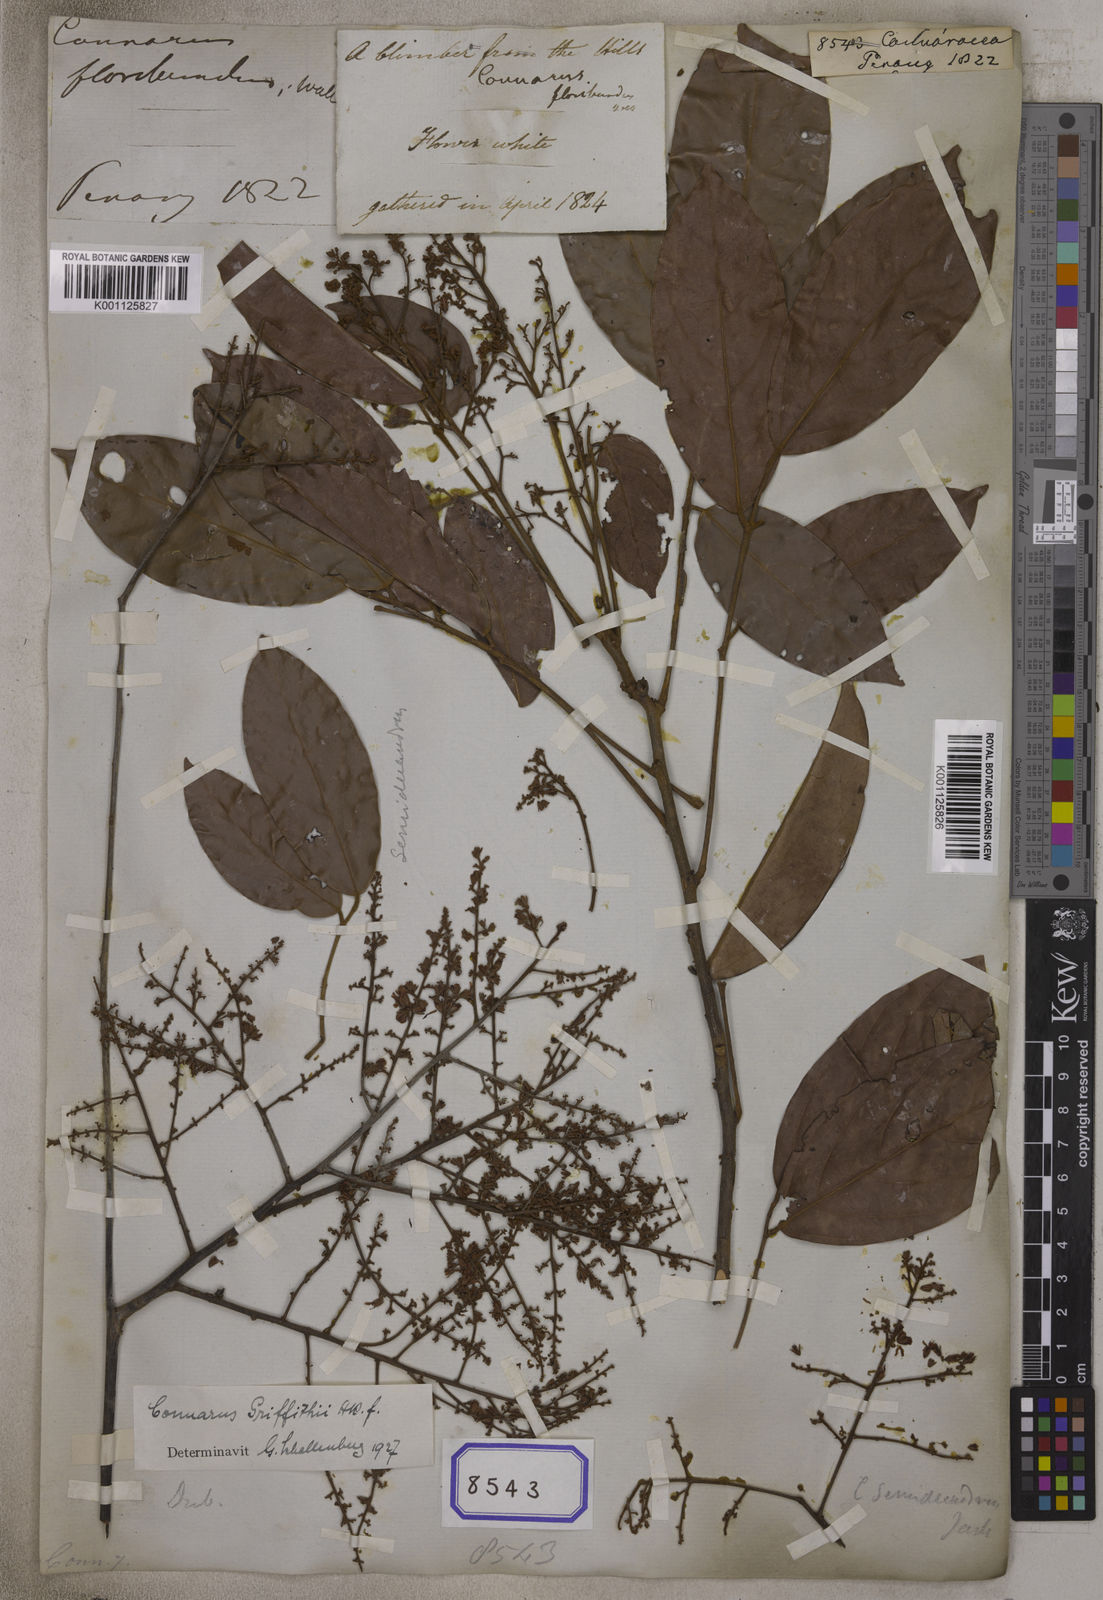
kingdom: Plantae
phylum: Tracheophyta
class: Magnoliopsida
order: Oxalidales
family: Connaraceae
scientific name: Connaraceae
